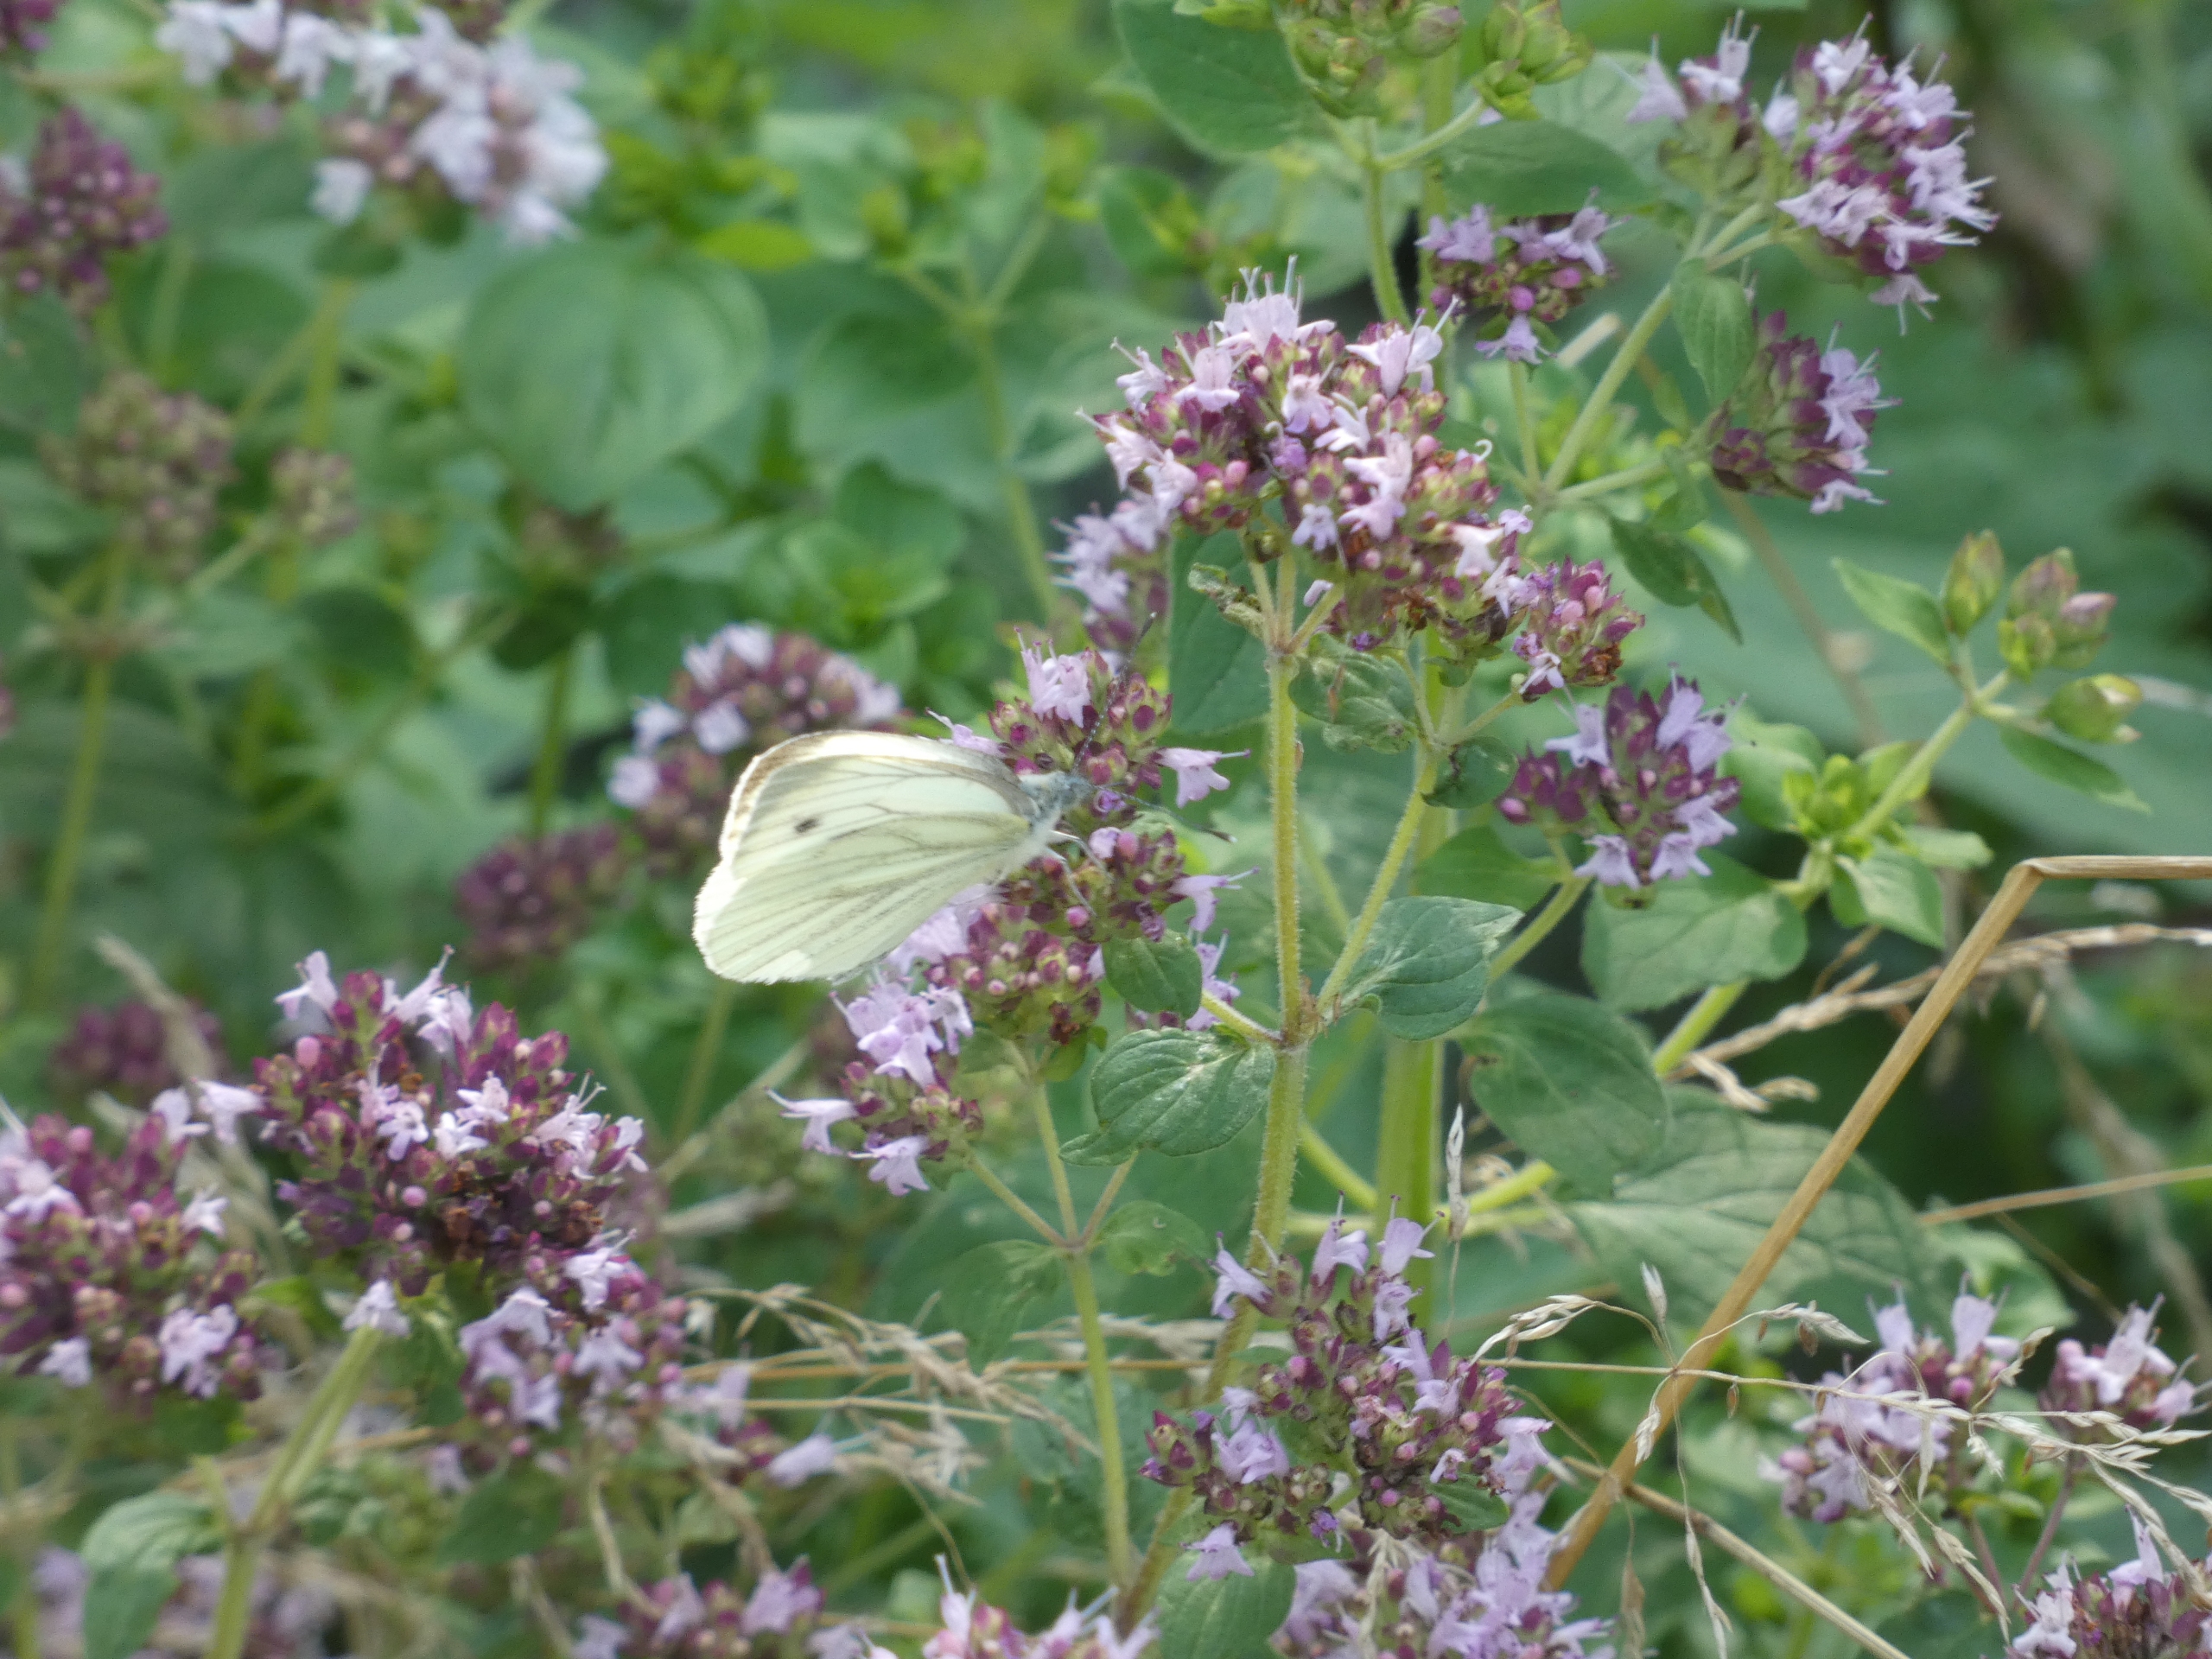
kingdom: Animalia
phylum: Arthropoda
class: Insecta
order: Lepidoptera
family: Pieridae
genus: Pieris
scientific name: Pieris napi
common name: Grønåret kålsommerfugl
